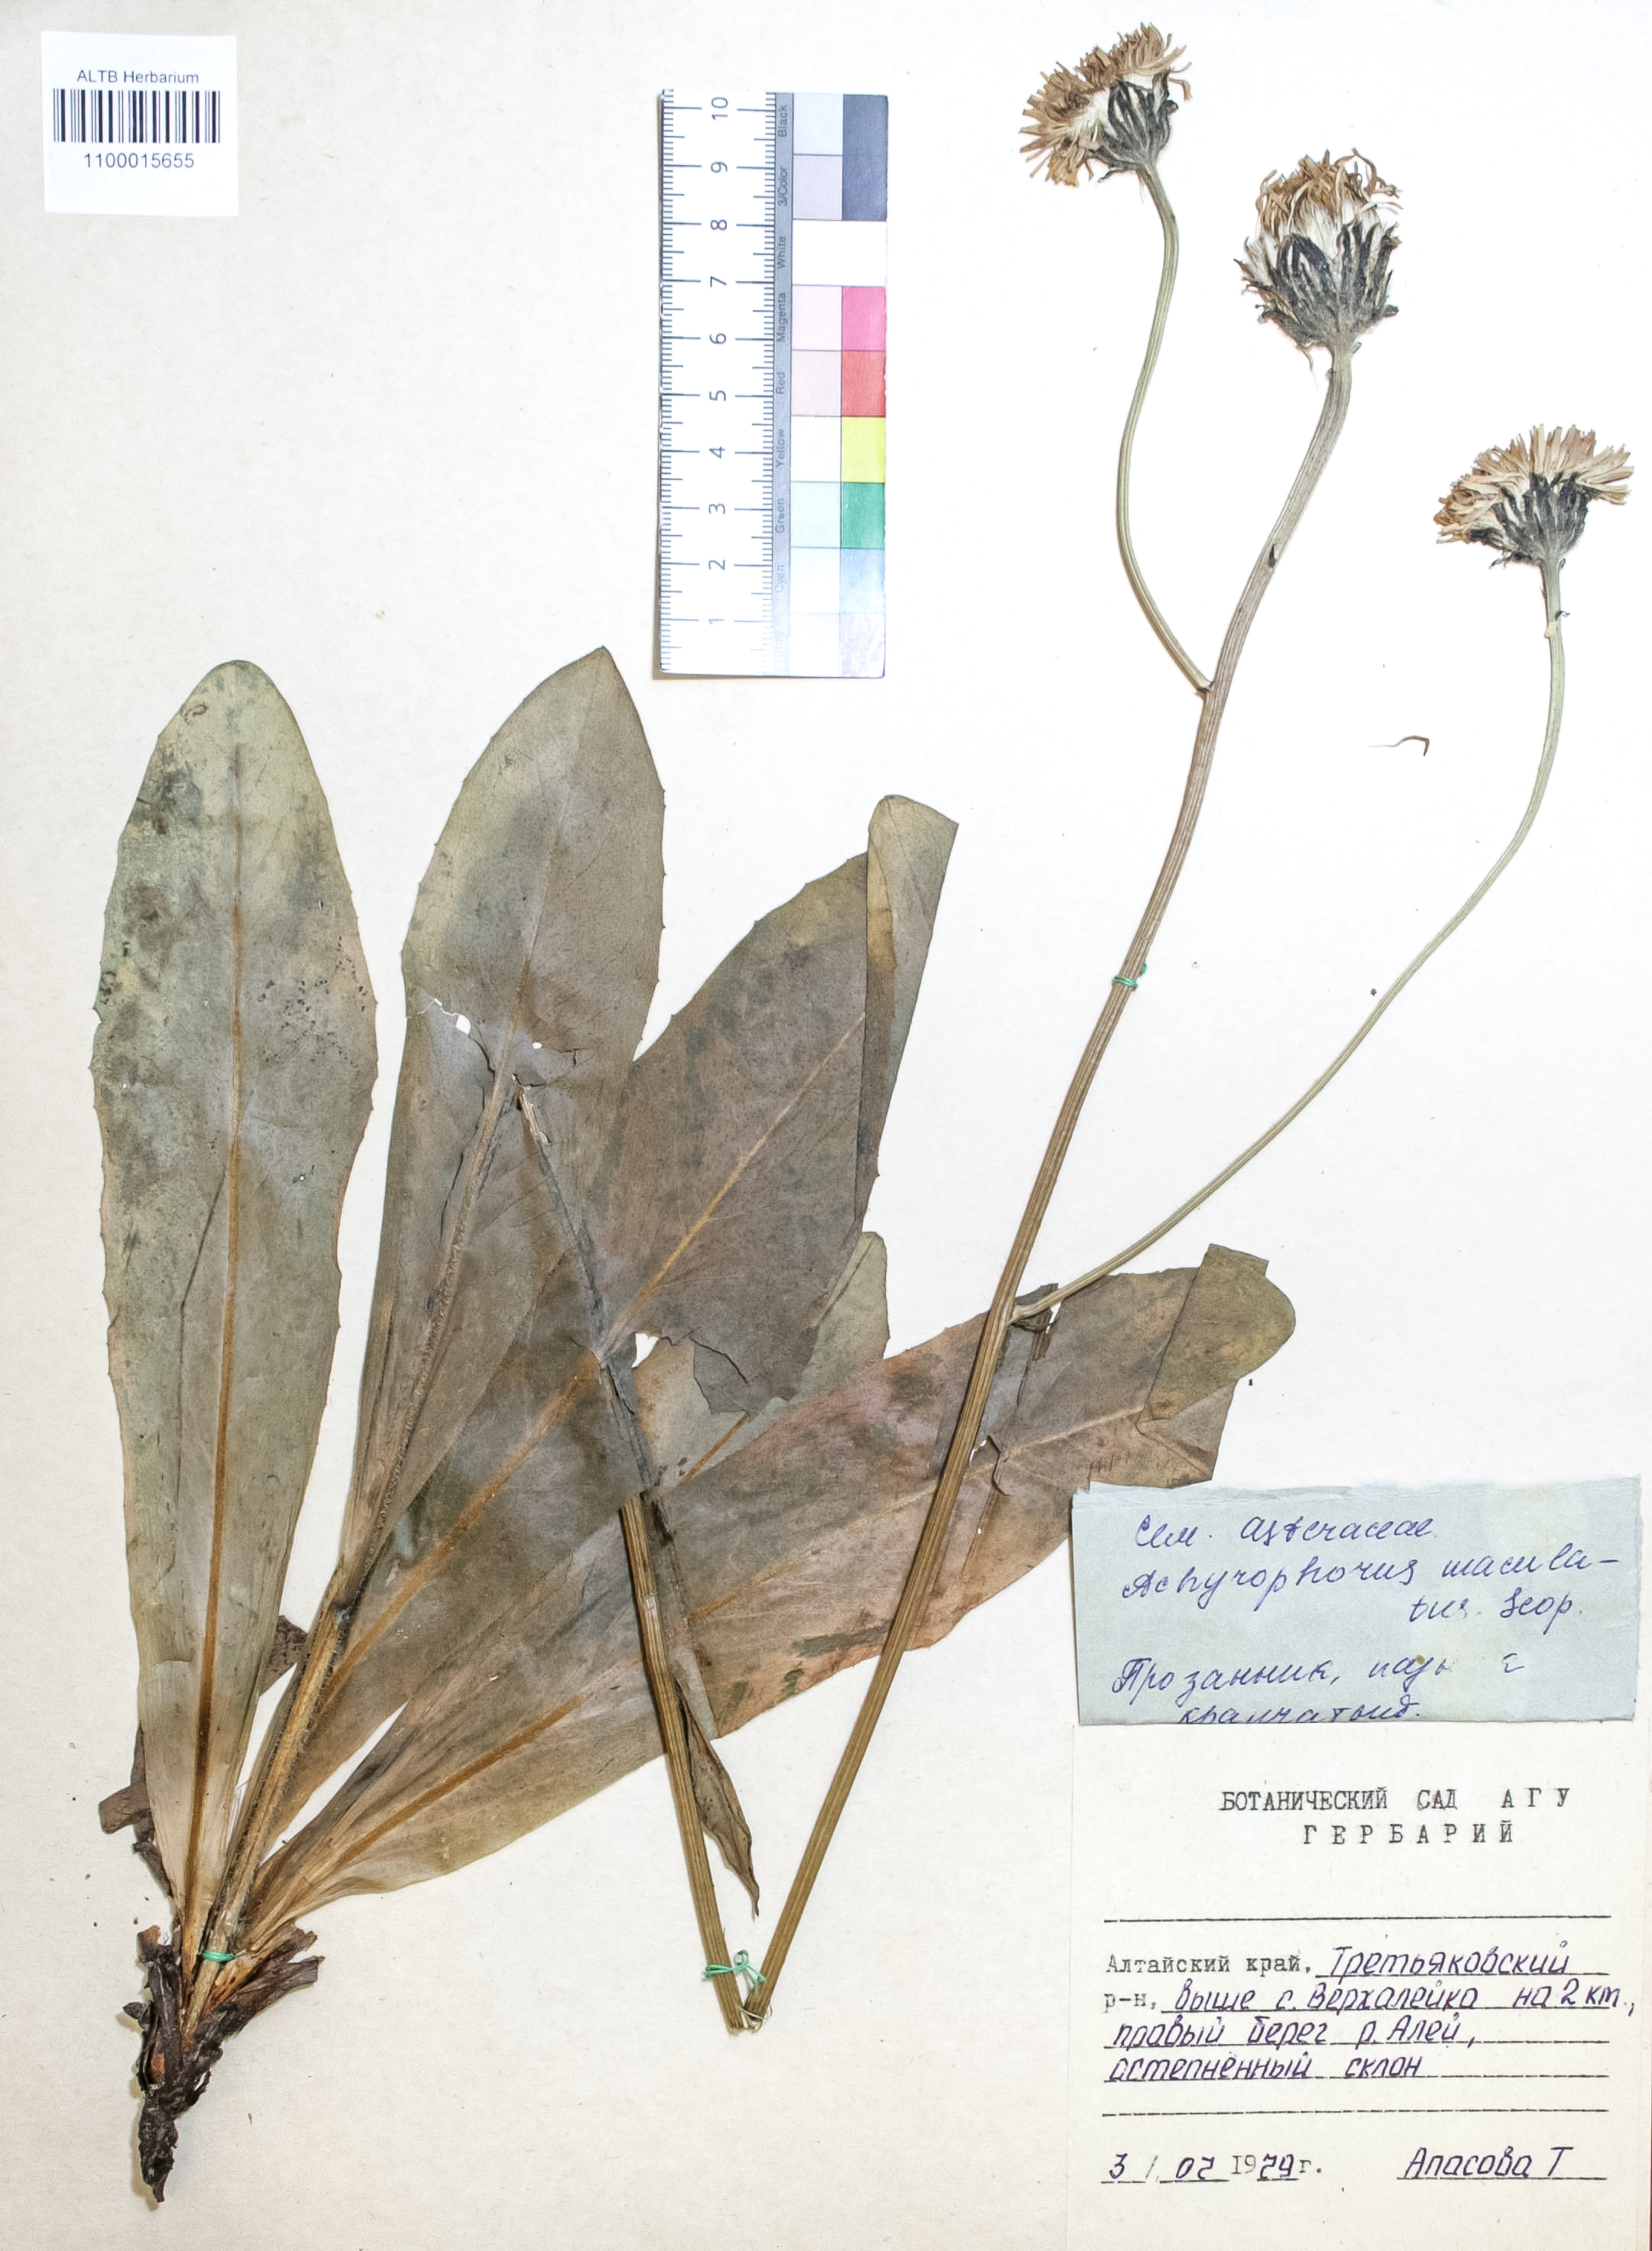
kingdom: Plantae
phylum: Tracheophyta
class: Magnoliopsida
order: Asterales
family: Asteraceae
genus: Trommsdorffia
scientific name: Trommsdorffia maculata
